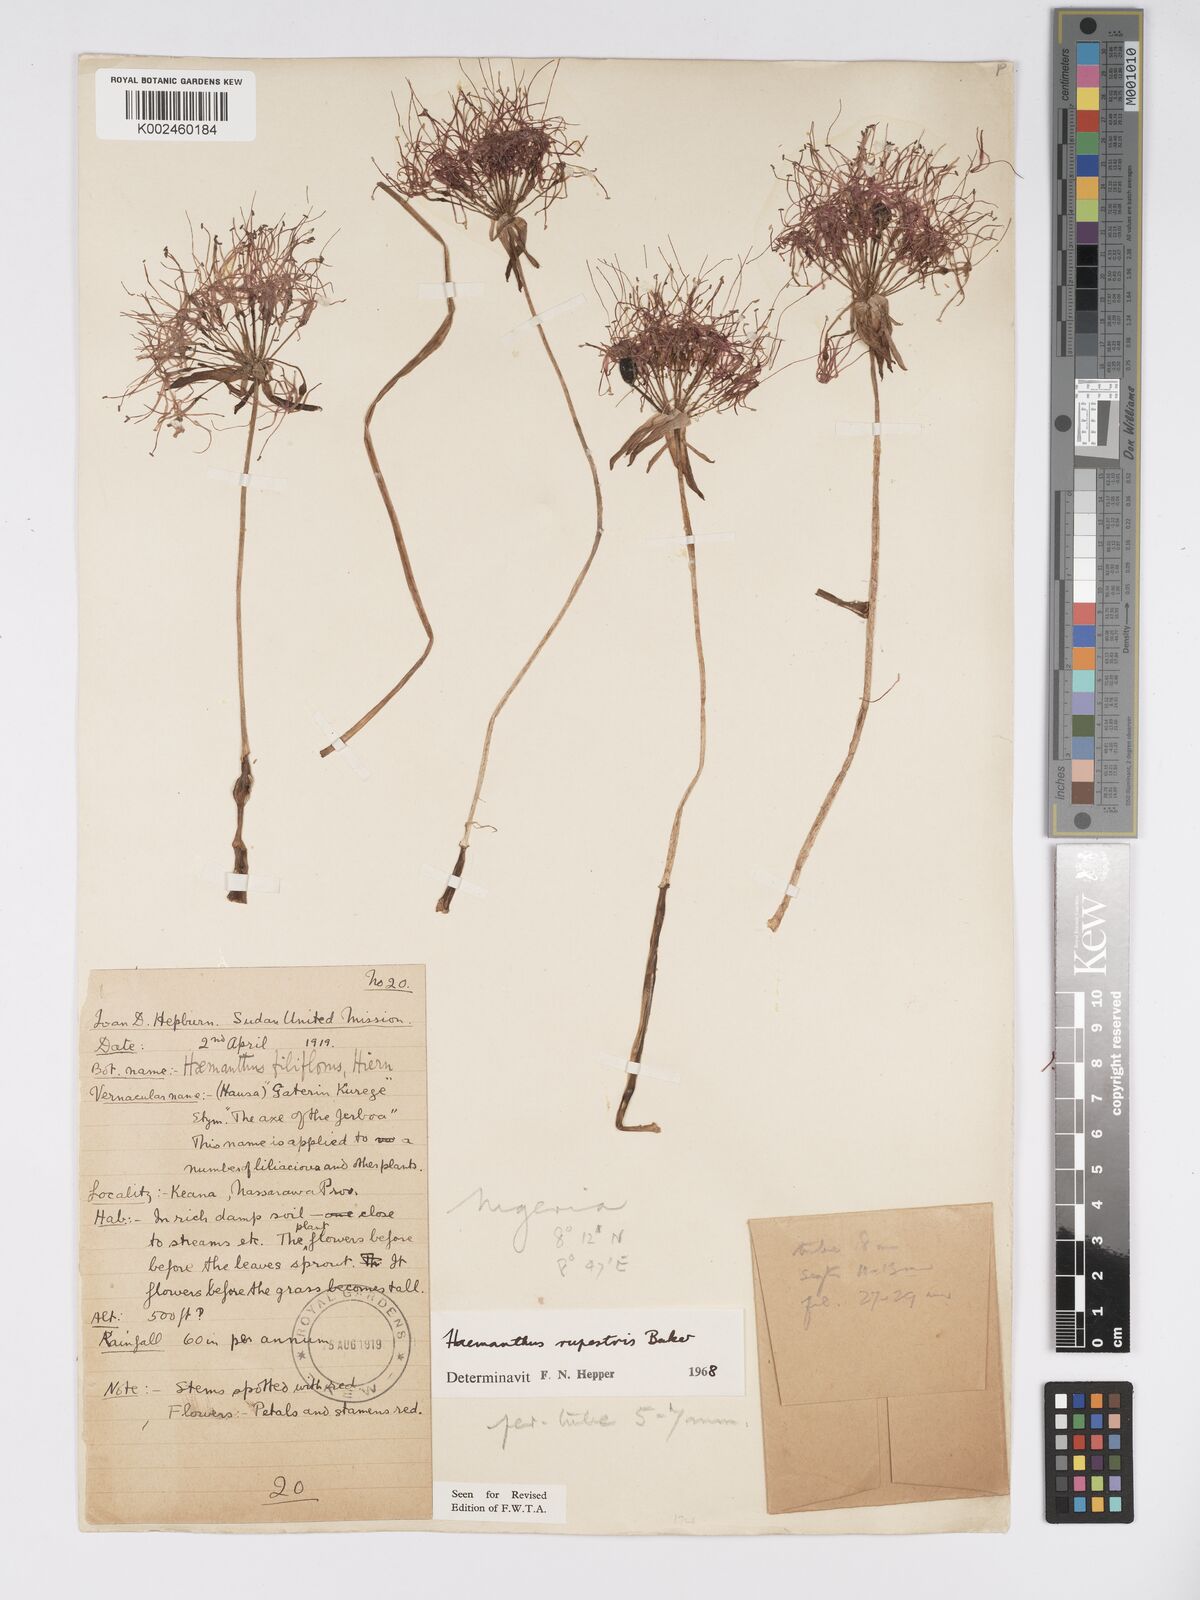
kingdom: Plantae
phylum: Tracheophyta
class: Liliopsida
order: Asparagales
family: Amaryllidaceae
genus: Scadoxus
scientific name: Scadoxus multiflorus
